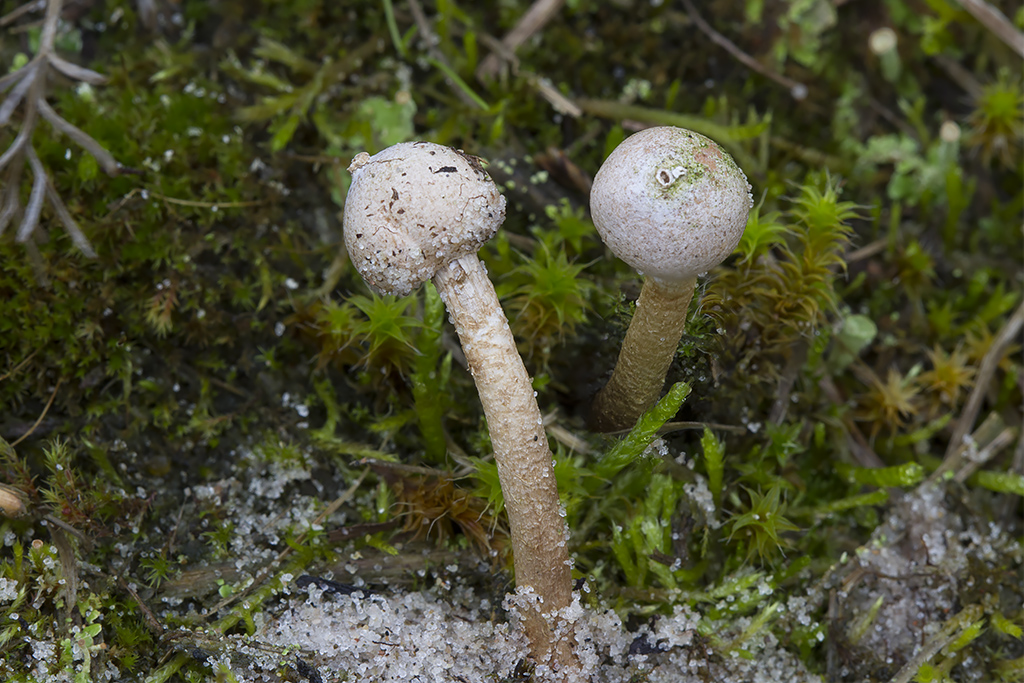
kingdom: Fungi
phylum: Basidiomycota
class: Agaricomycetes
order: Agaricales
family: Agaricaceae
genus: Tulostoma
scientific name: Tulostoma brumale
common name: vinter-stilkbovist
